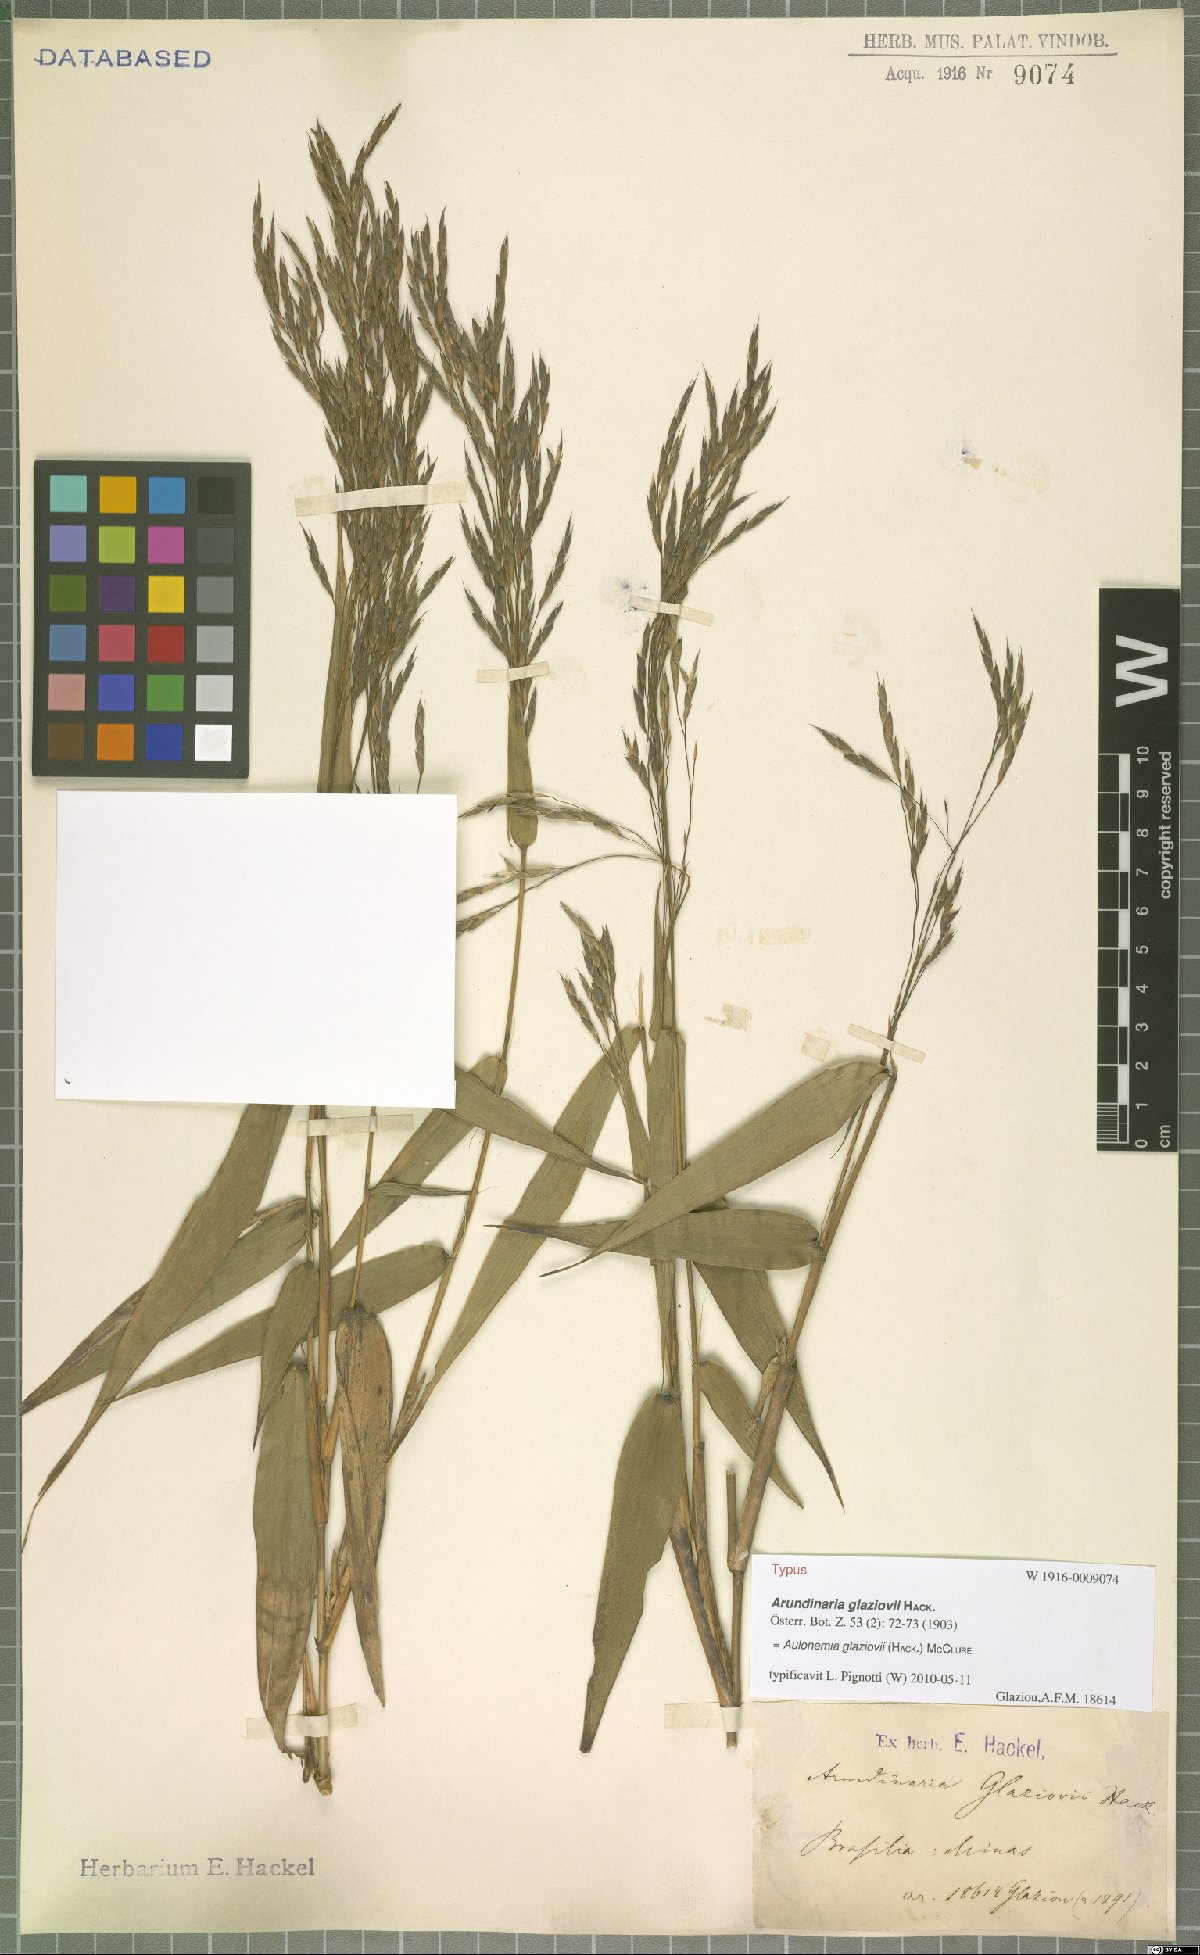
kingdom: Plantae
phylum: Tracheophyta
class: Liliopsida
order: Poales
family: Poaceae
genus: Aulonemia
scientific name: Aulonemia radiata
